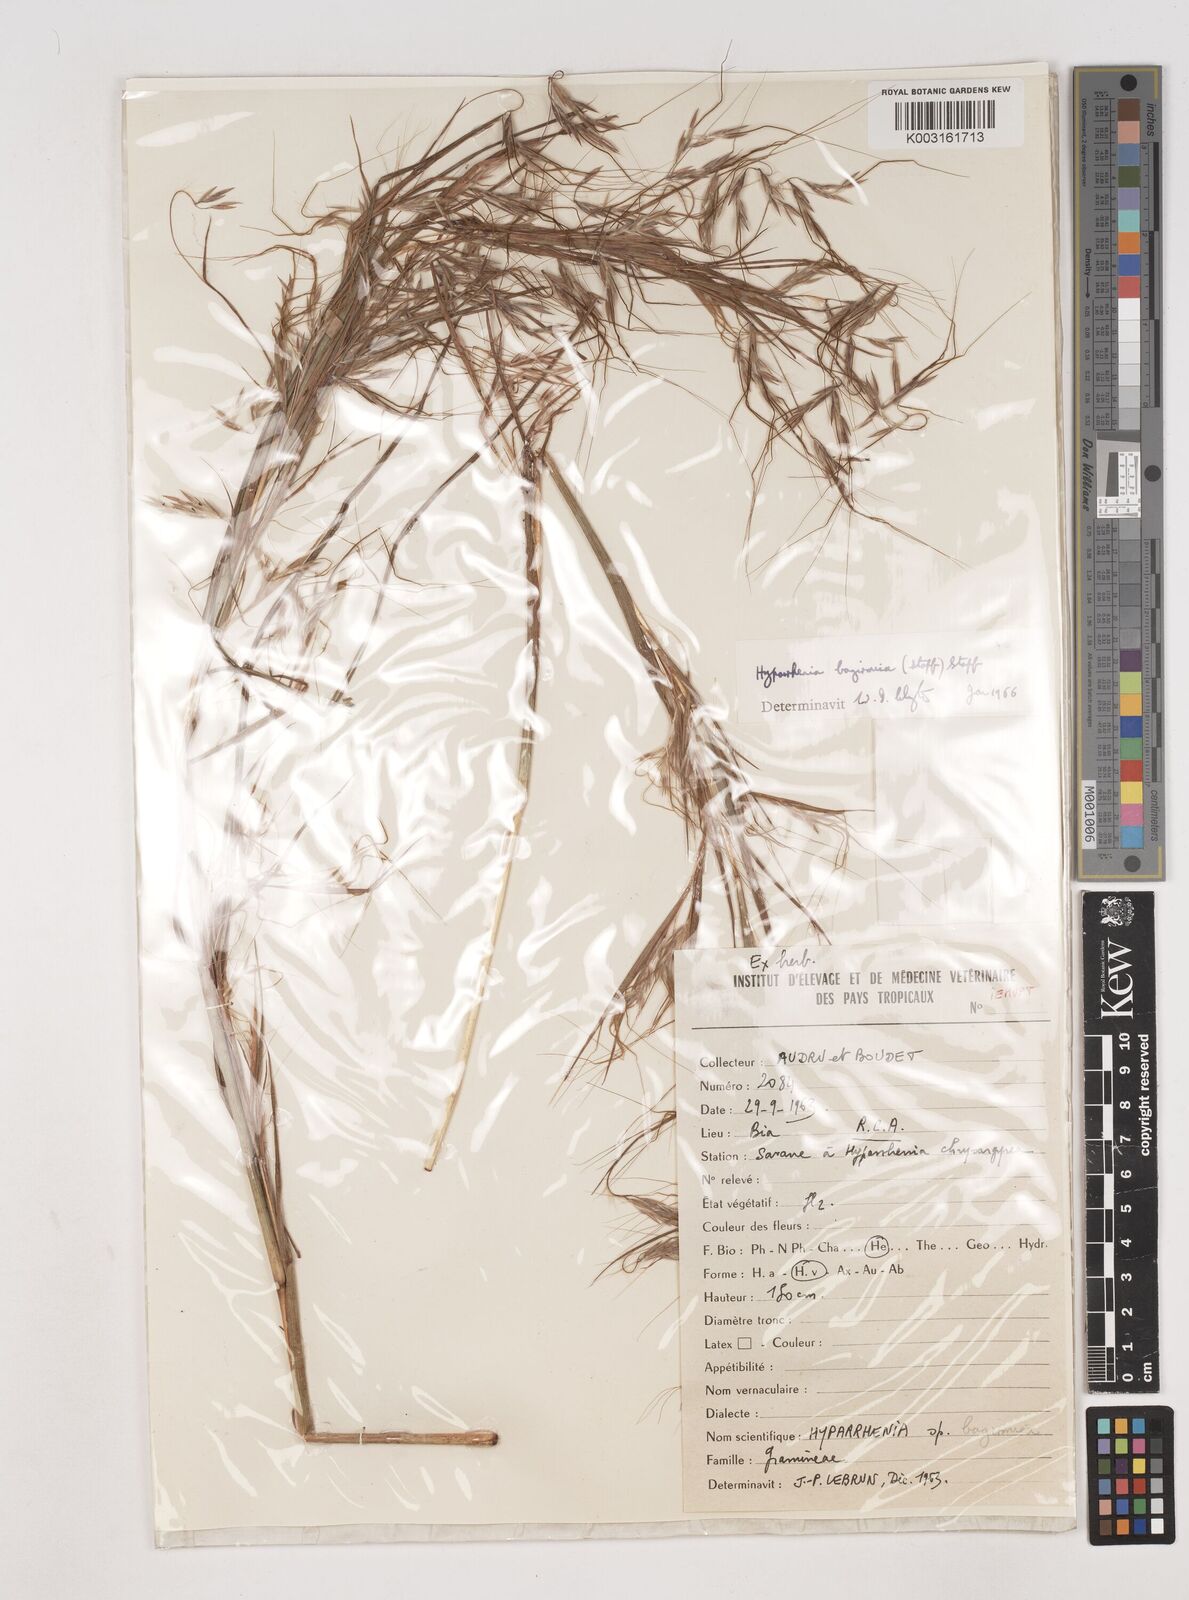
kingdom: Plantae
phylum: Tracheophyta
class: Liliopsida
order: Poales
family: Poaceae
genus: Hyparrhenia
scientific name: Hyparrhenia bagirmica
